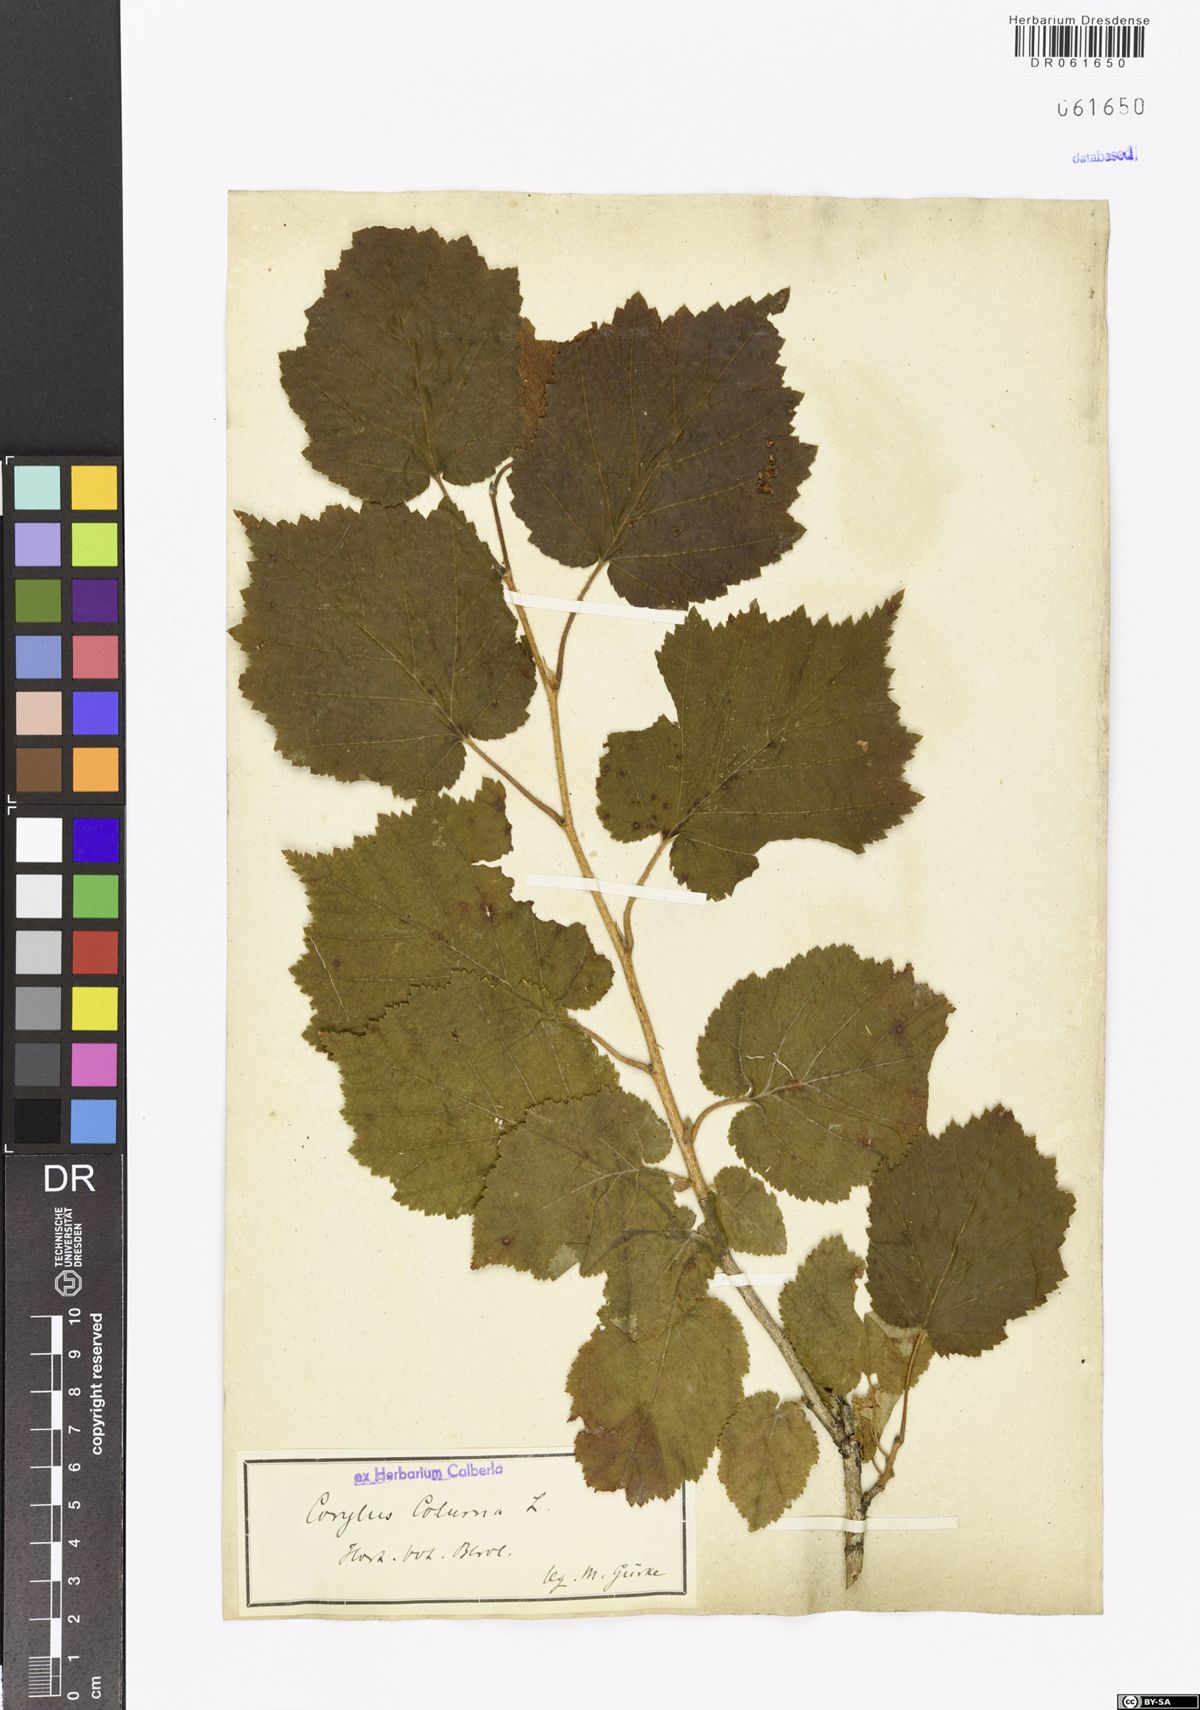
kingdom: Plantae
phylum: Tracheophyta
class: Magnoliopsida
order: Fagales
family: Betulaceae
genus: Corylus
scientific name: Corylus colurna
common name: Turkish hazel
